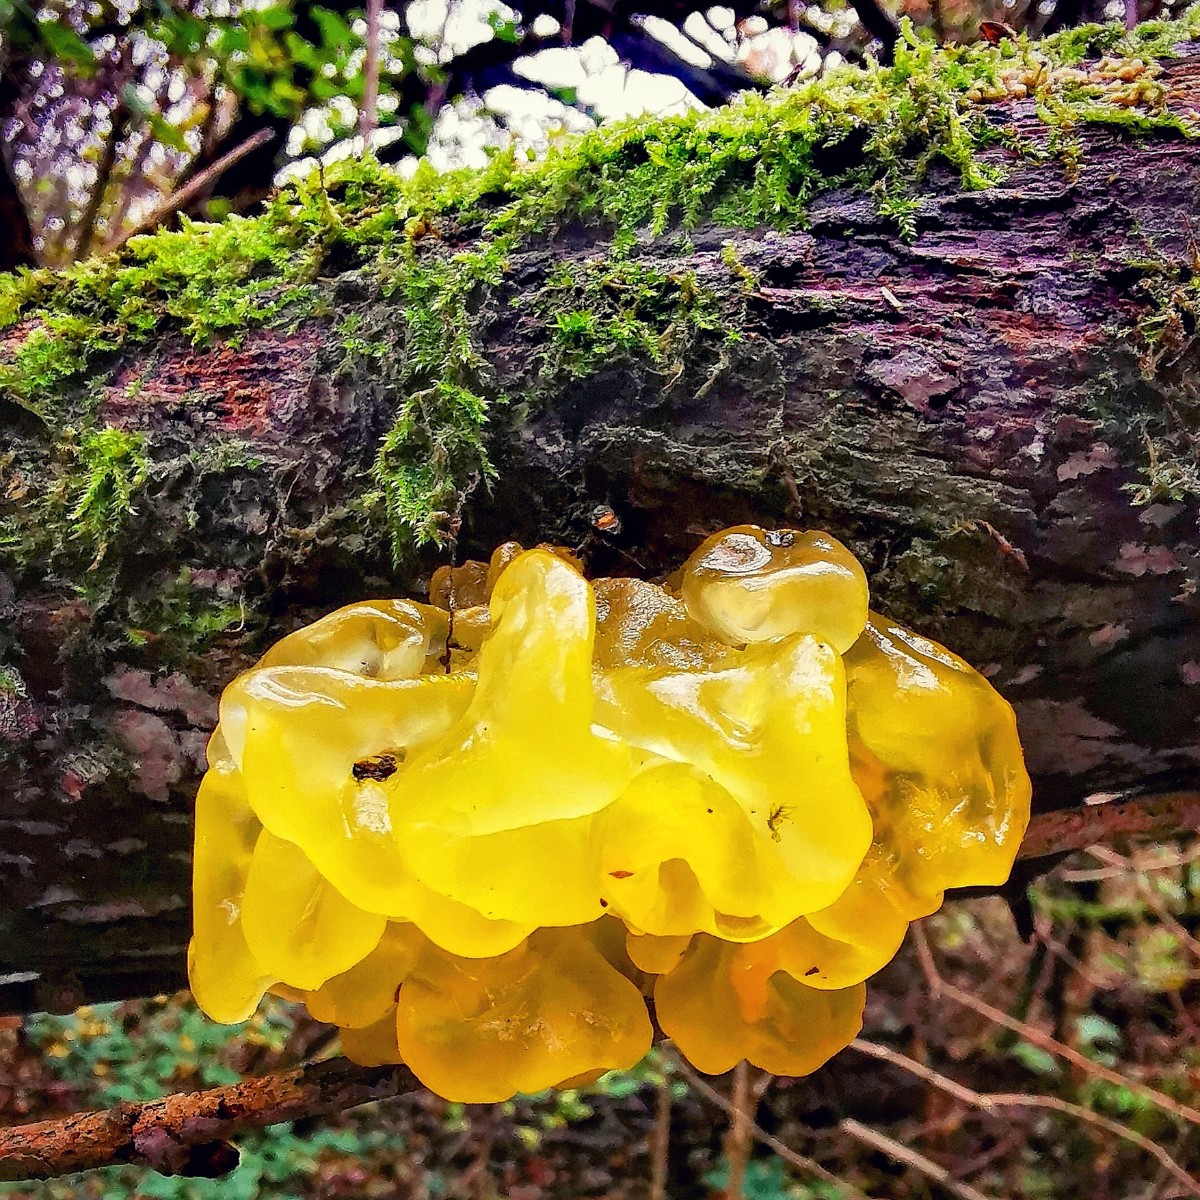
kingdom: Fungi
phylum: Basidiomycota
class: Tremellomycetes
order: Tremellales
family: Tremellaceae
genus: Tremella
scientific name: Tremella mesenterica
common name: gul bævresvamp
